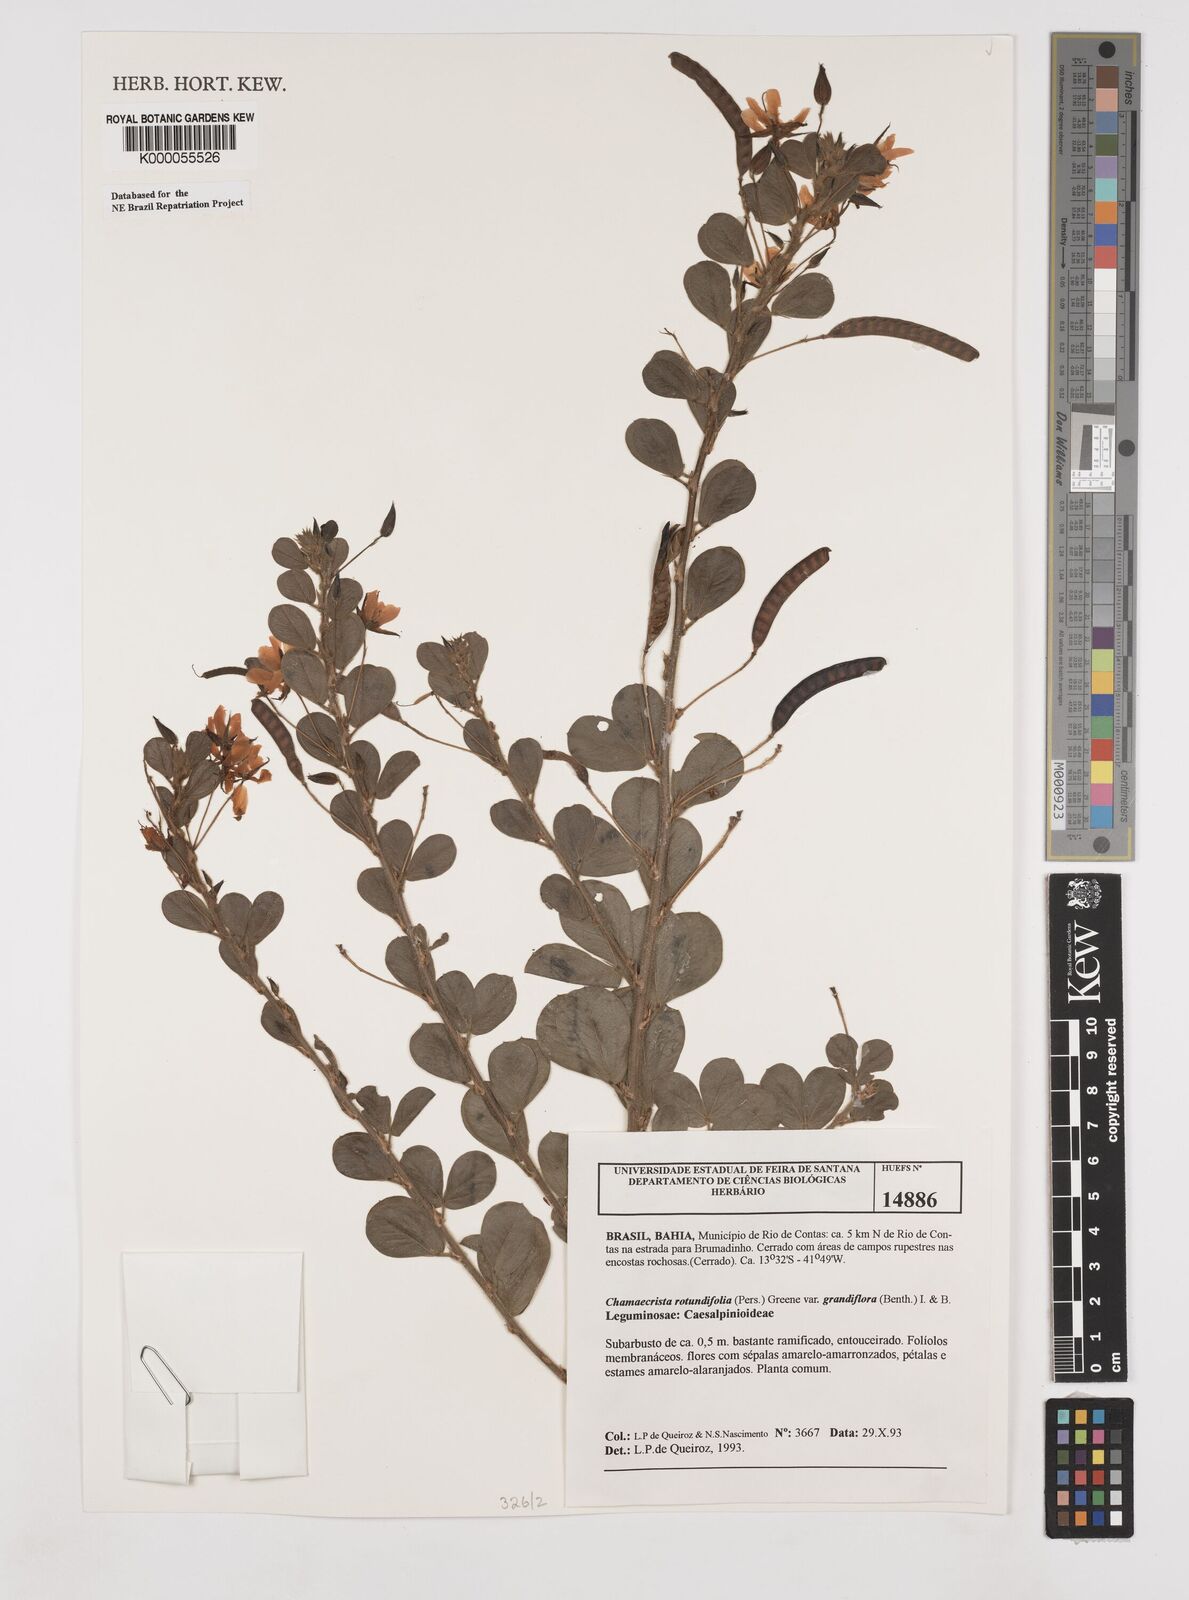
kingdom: Plantae
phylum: Tracheophyta
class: Magnoliopsida
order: Fabales
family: Fabaceae
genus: Chamaecrista
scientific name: Chamaecrista rotundifolia
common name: Round-leaf cassia
